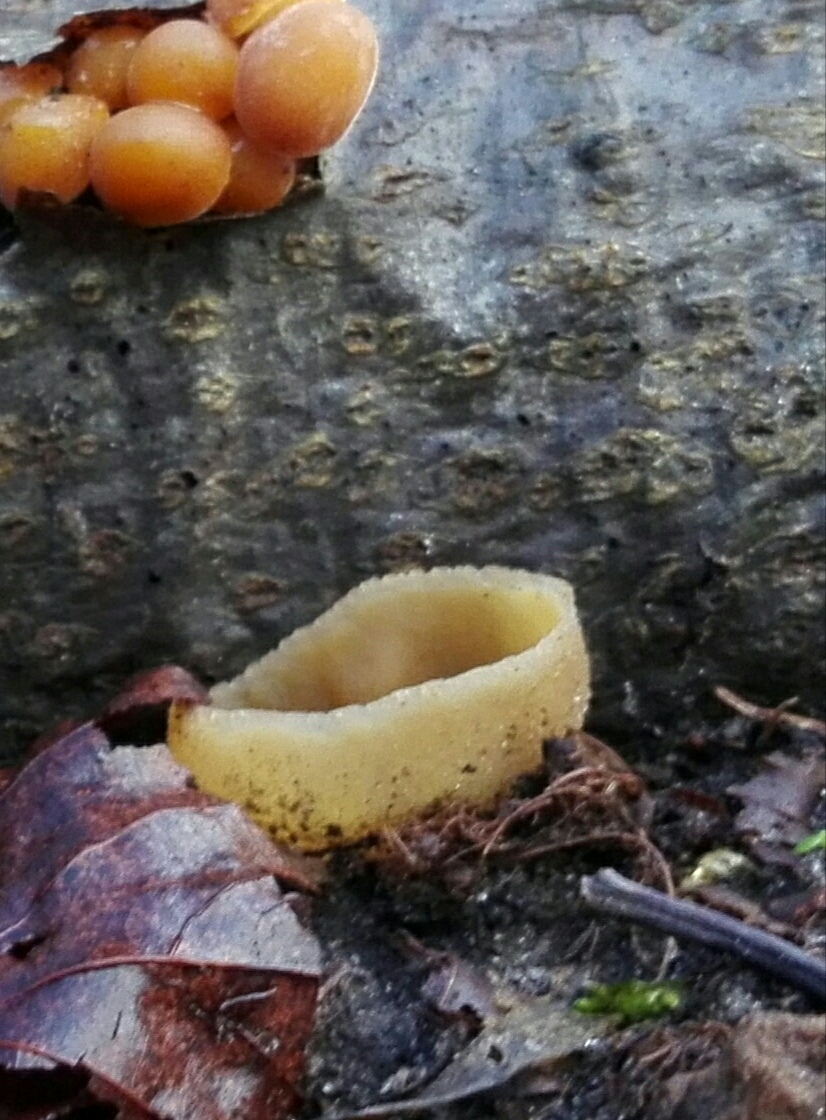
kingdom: Fungi
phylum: Ascomycota
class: Pezizomycetes
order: Pezizales
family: Pezizaceae
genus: Peziza
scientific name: Peziza
